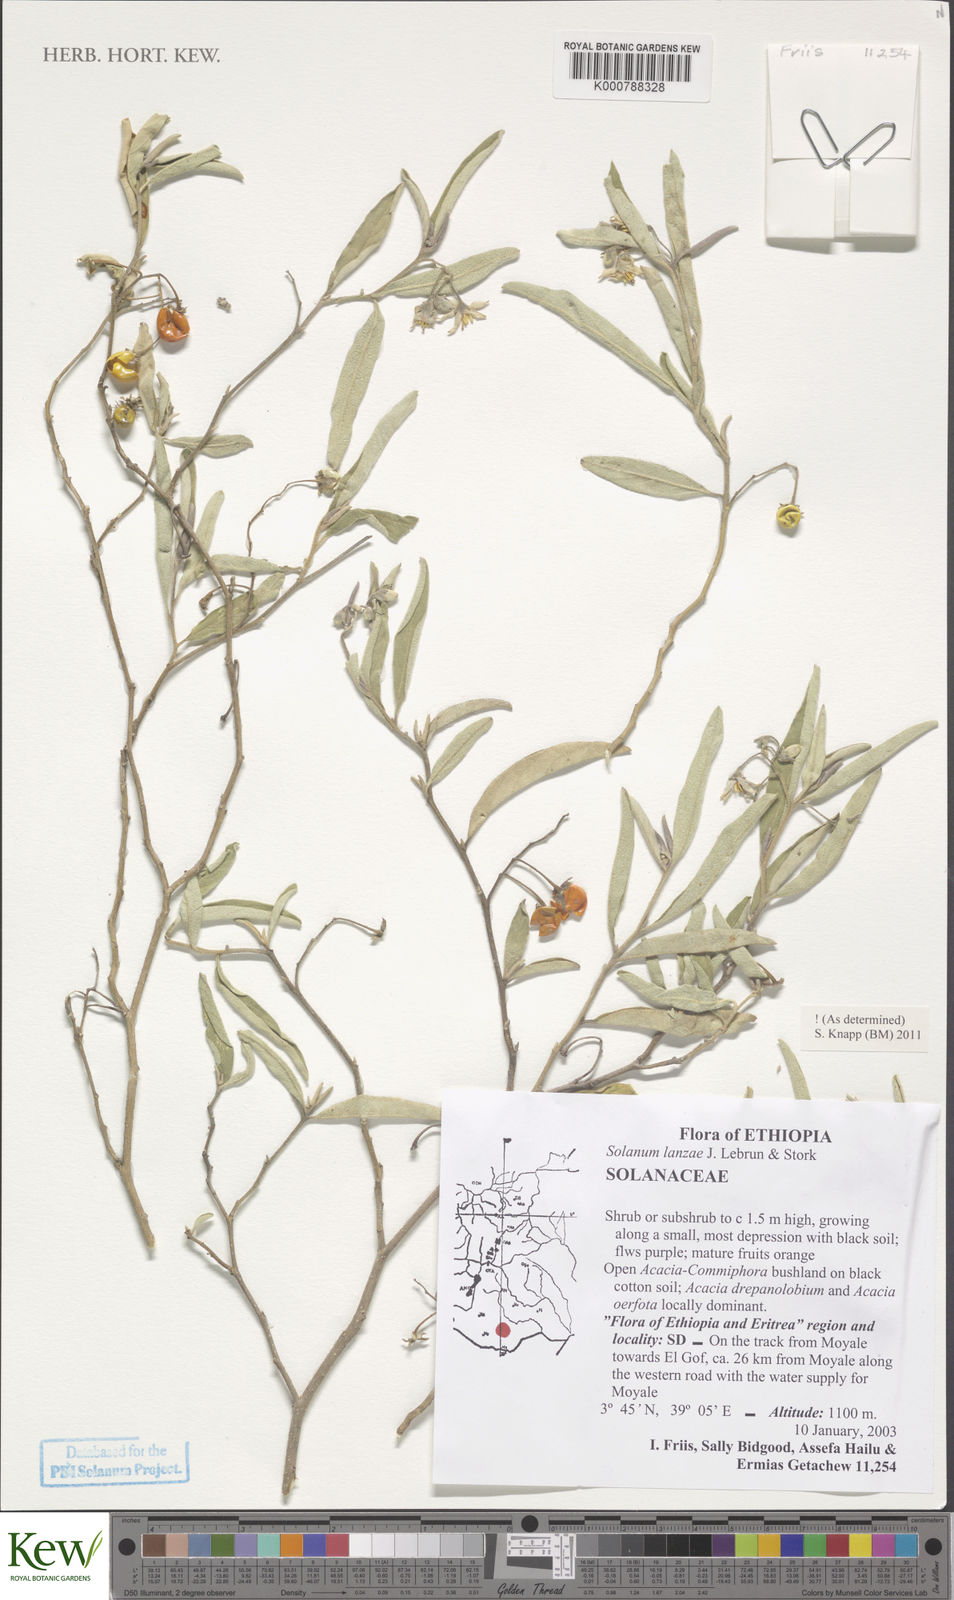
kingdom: Plantae
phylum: Tracheophyta
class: Magnoliopsida
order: Solanales
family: Solanaceae
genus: Solanum
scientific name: Solanum lanzae
